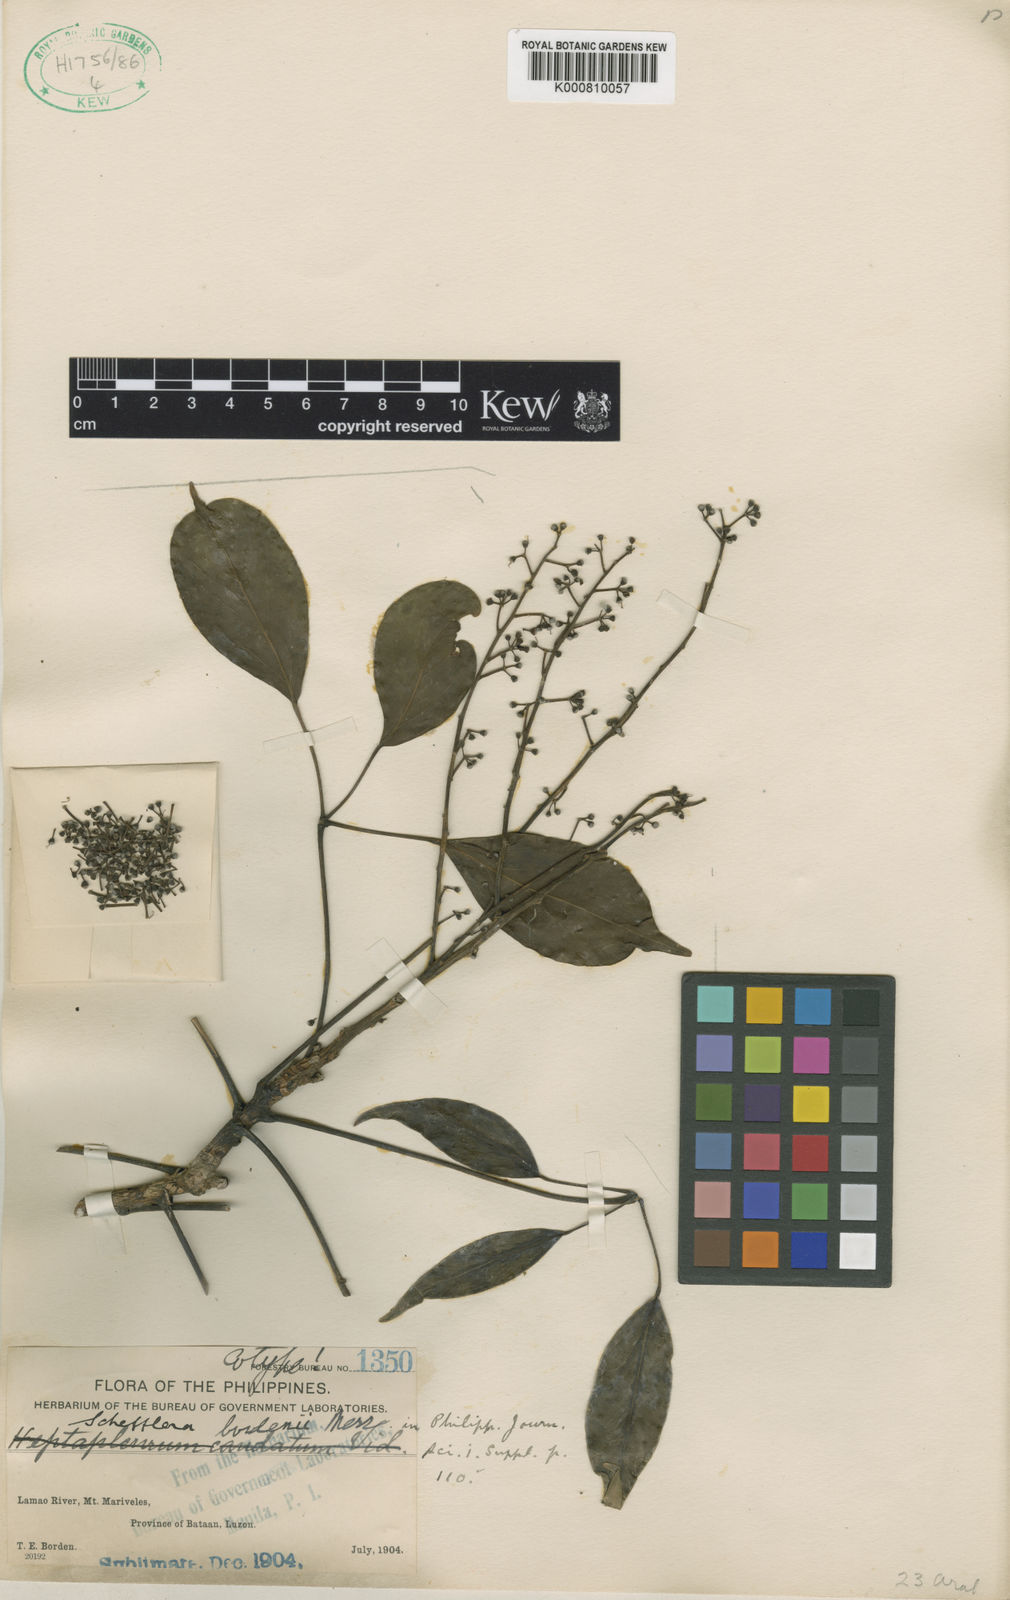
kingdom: Plantae
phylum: Tracheophyta
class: Magnoliopsida
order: Apiales
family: Araliaceae
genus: Heptapleurum
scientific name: Heptapleurum bordenii
